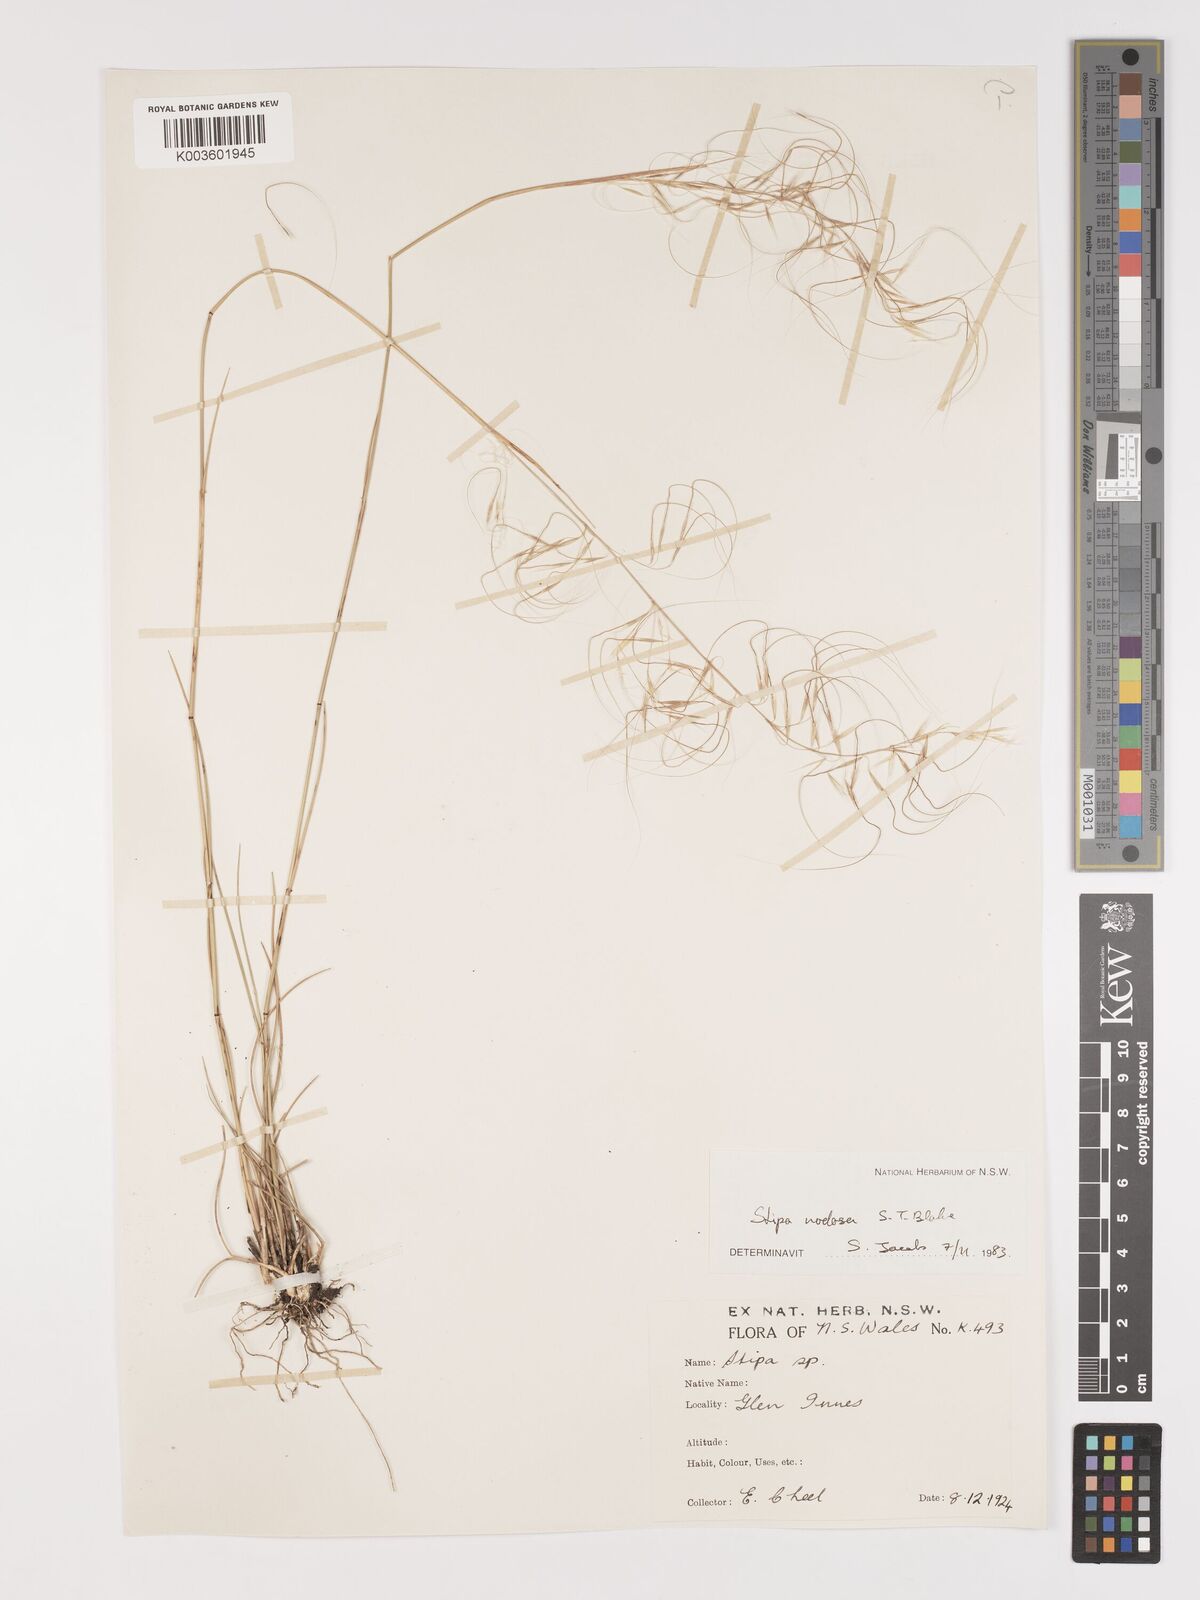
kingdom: Plantae
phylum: Tracheophyta
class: Liliopsida
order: Poales
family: Poaceae
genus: Austrostipa
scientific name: Austrostipa nodosa
